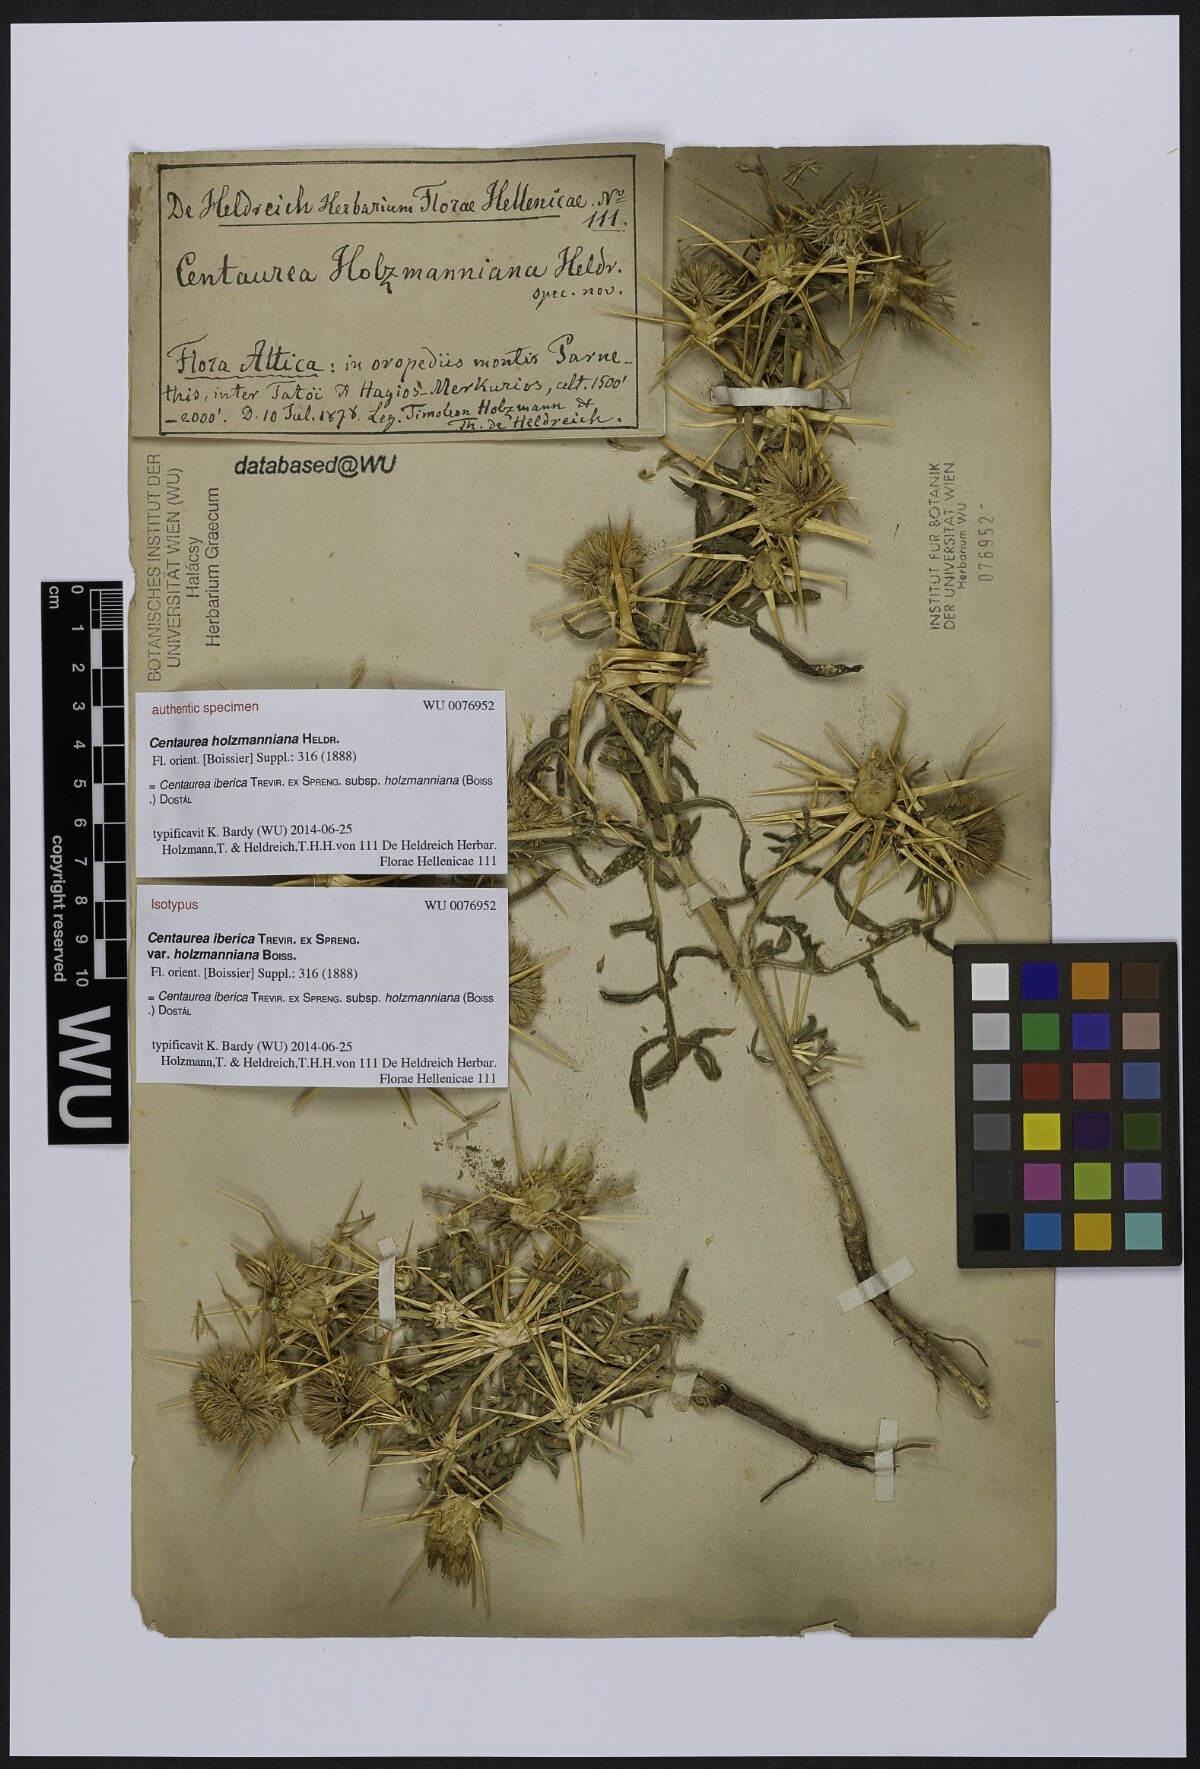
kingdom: Plantae
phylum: Tracheophyta
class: Magnoliopsida
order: Asterales
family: Asteraceae
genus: Centaurea
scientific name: Centaurea iberica
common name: Iberian knapweed
